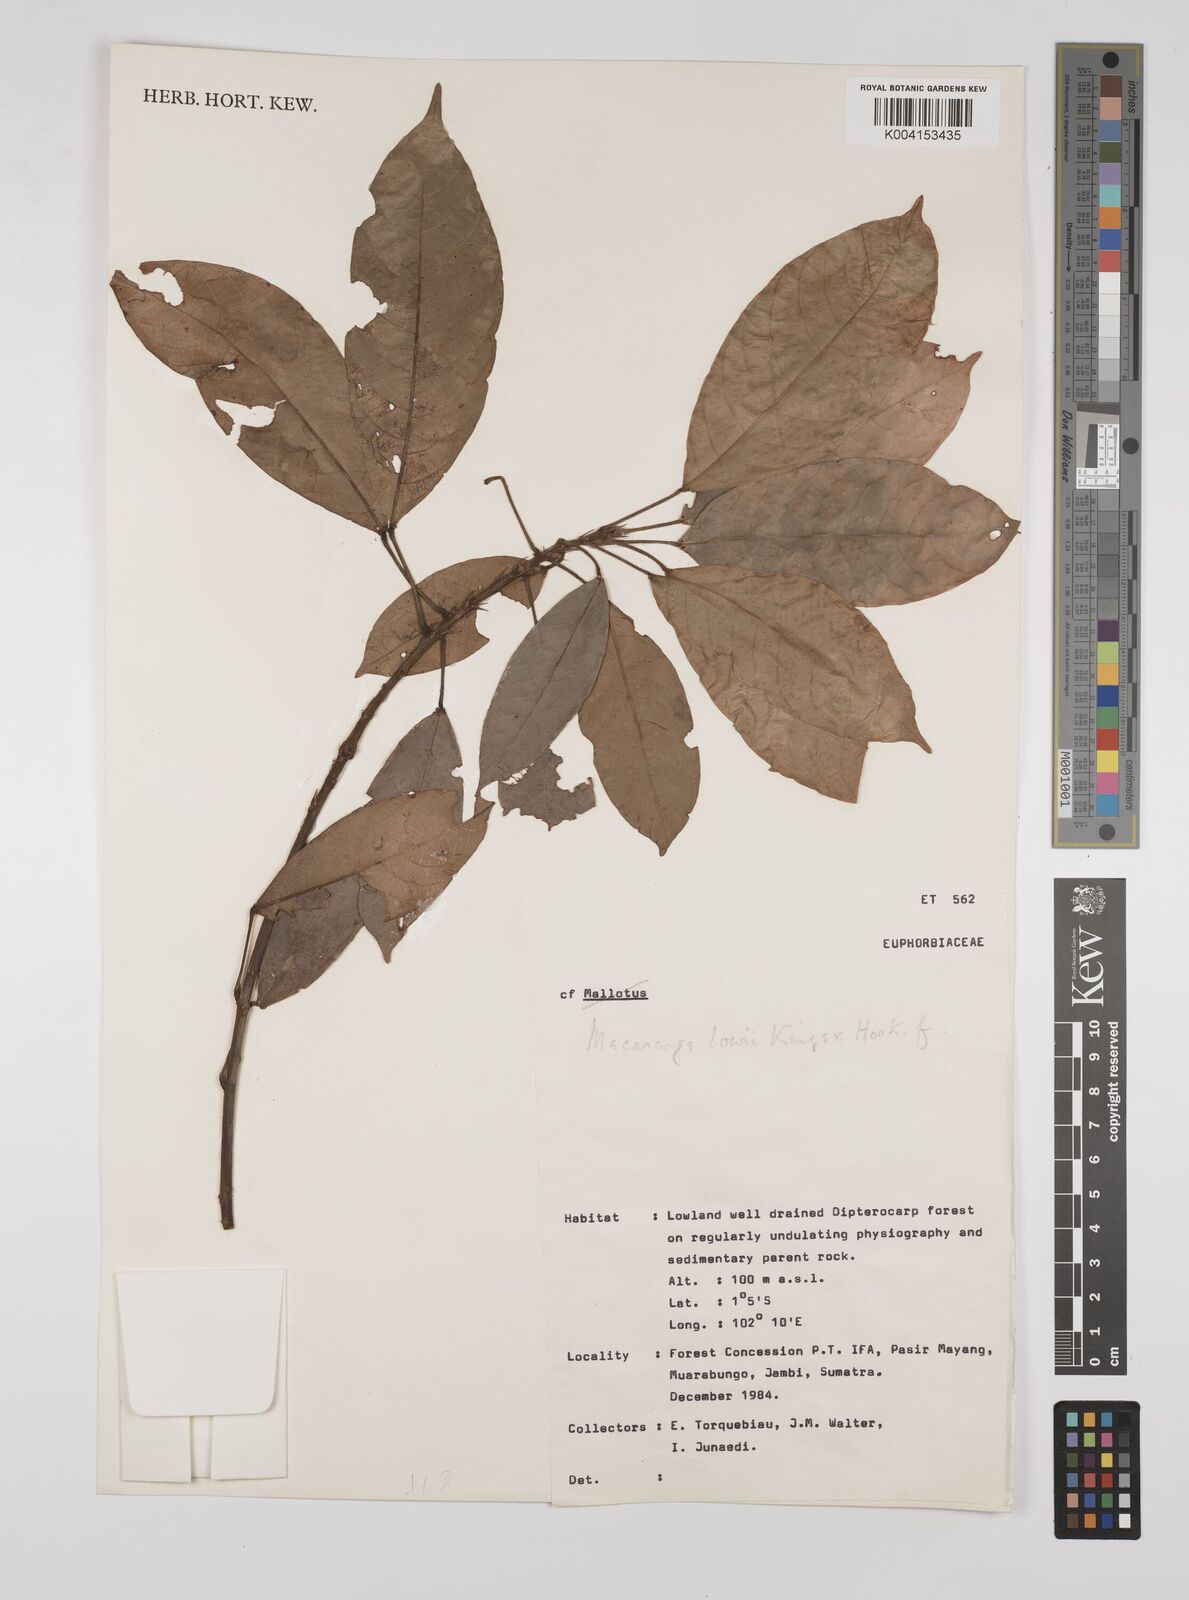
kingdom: Plantae
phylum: Tracheophyta
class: Magnoliopsida
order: Malpighiales
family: Euphorbiaceae
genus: Macaranga
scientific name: Macaranga lowii
